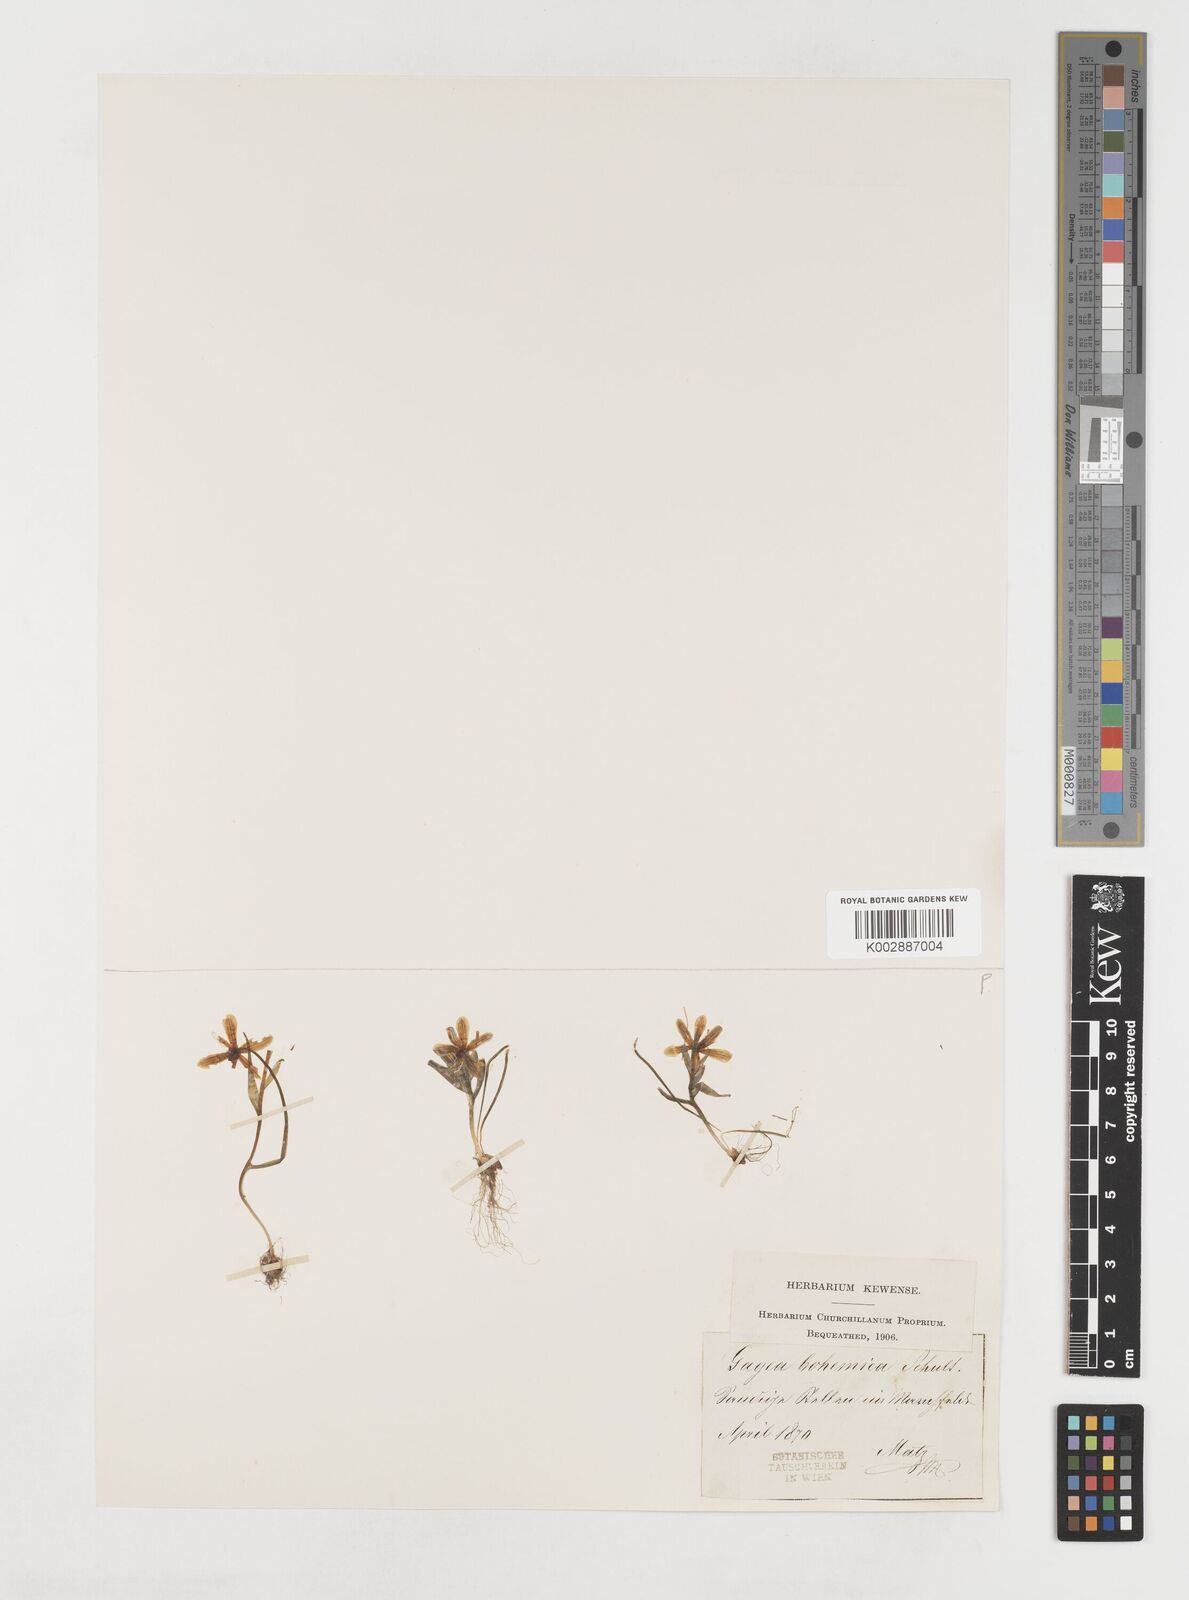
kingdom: Plantae
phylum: Tracheophyta
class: Liliopsida
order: Liliales
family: Liliaceae
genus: Gagea
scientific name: Gagea bohemica
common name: Early star-of-bethlehem
